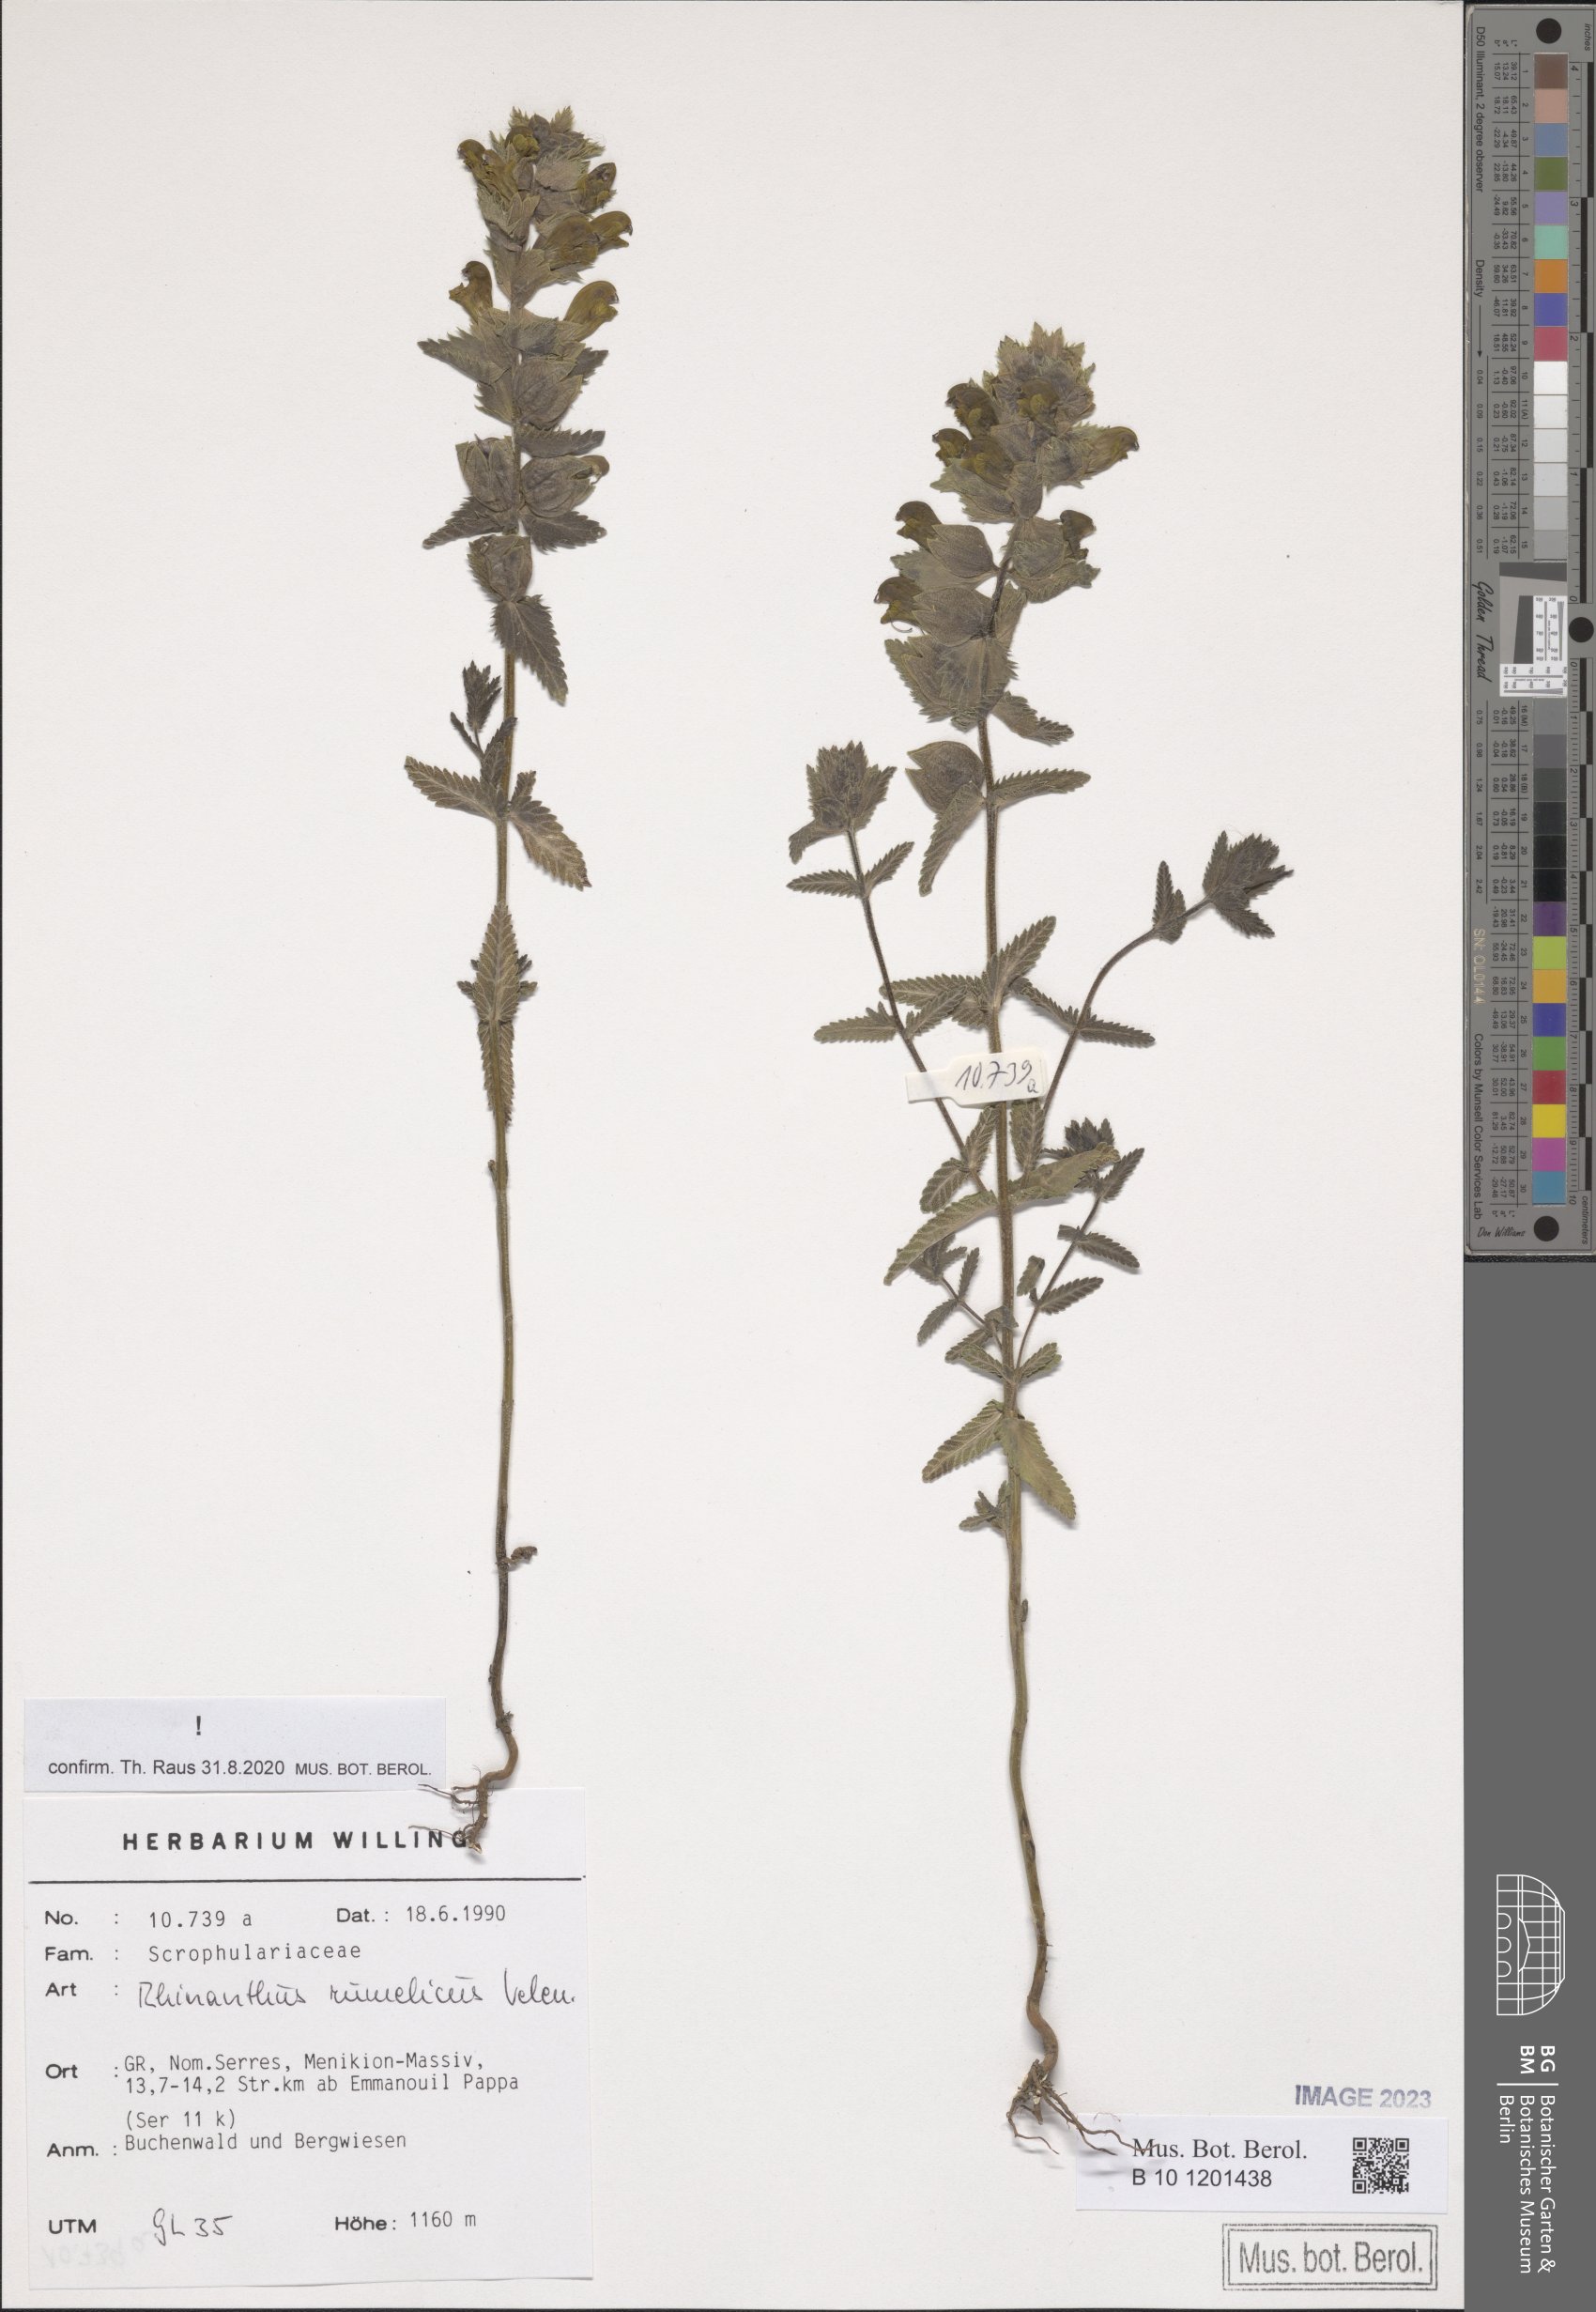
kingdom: Plantae
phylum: Tracheophyta
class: Magnoliopsida
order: Lamiales
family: Orobanchaceae
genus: Rhinanthus
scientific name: Rhinanthus rumelicus
